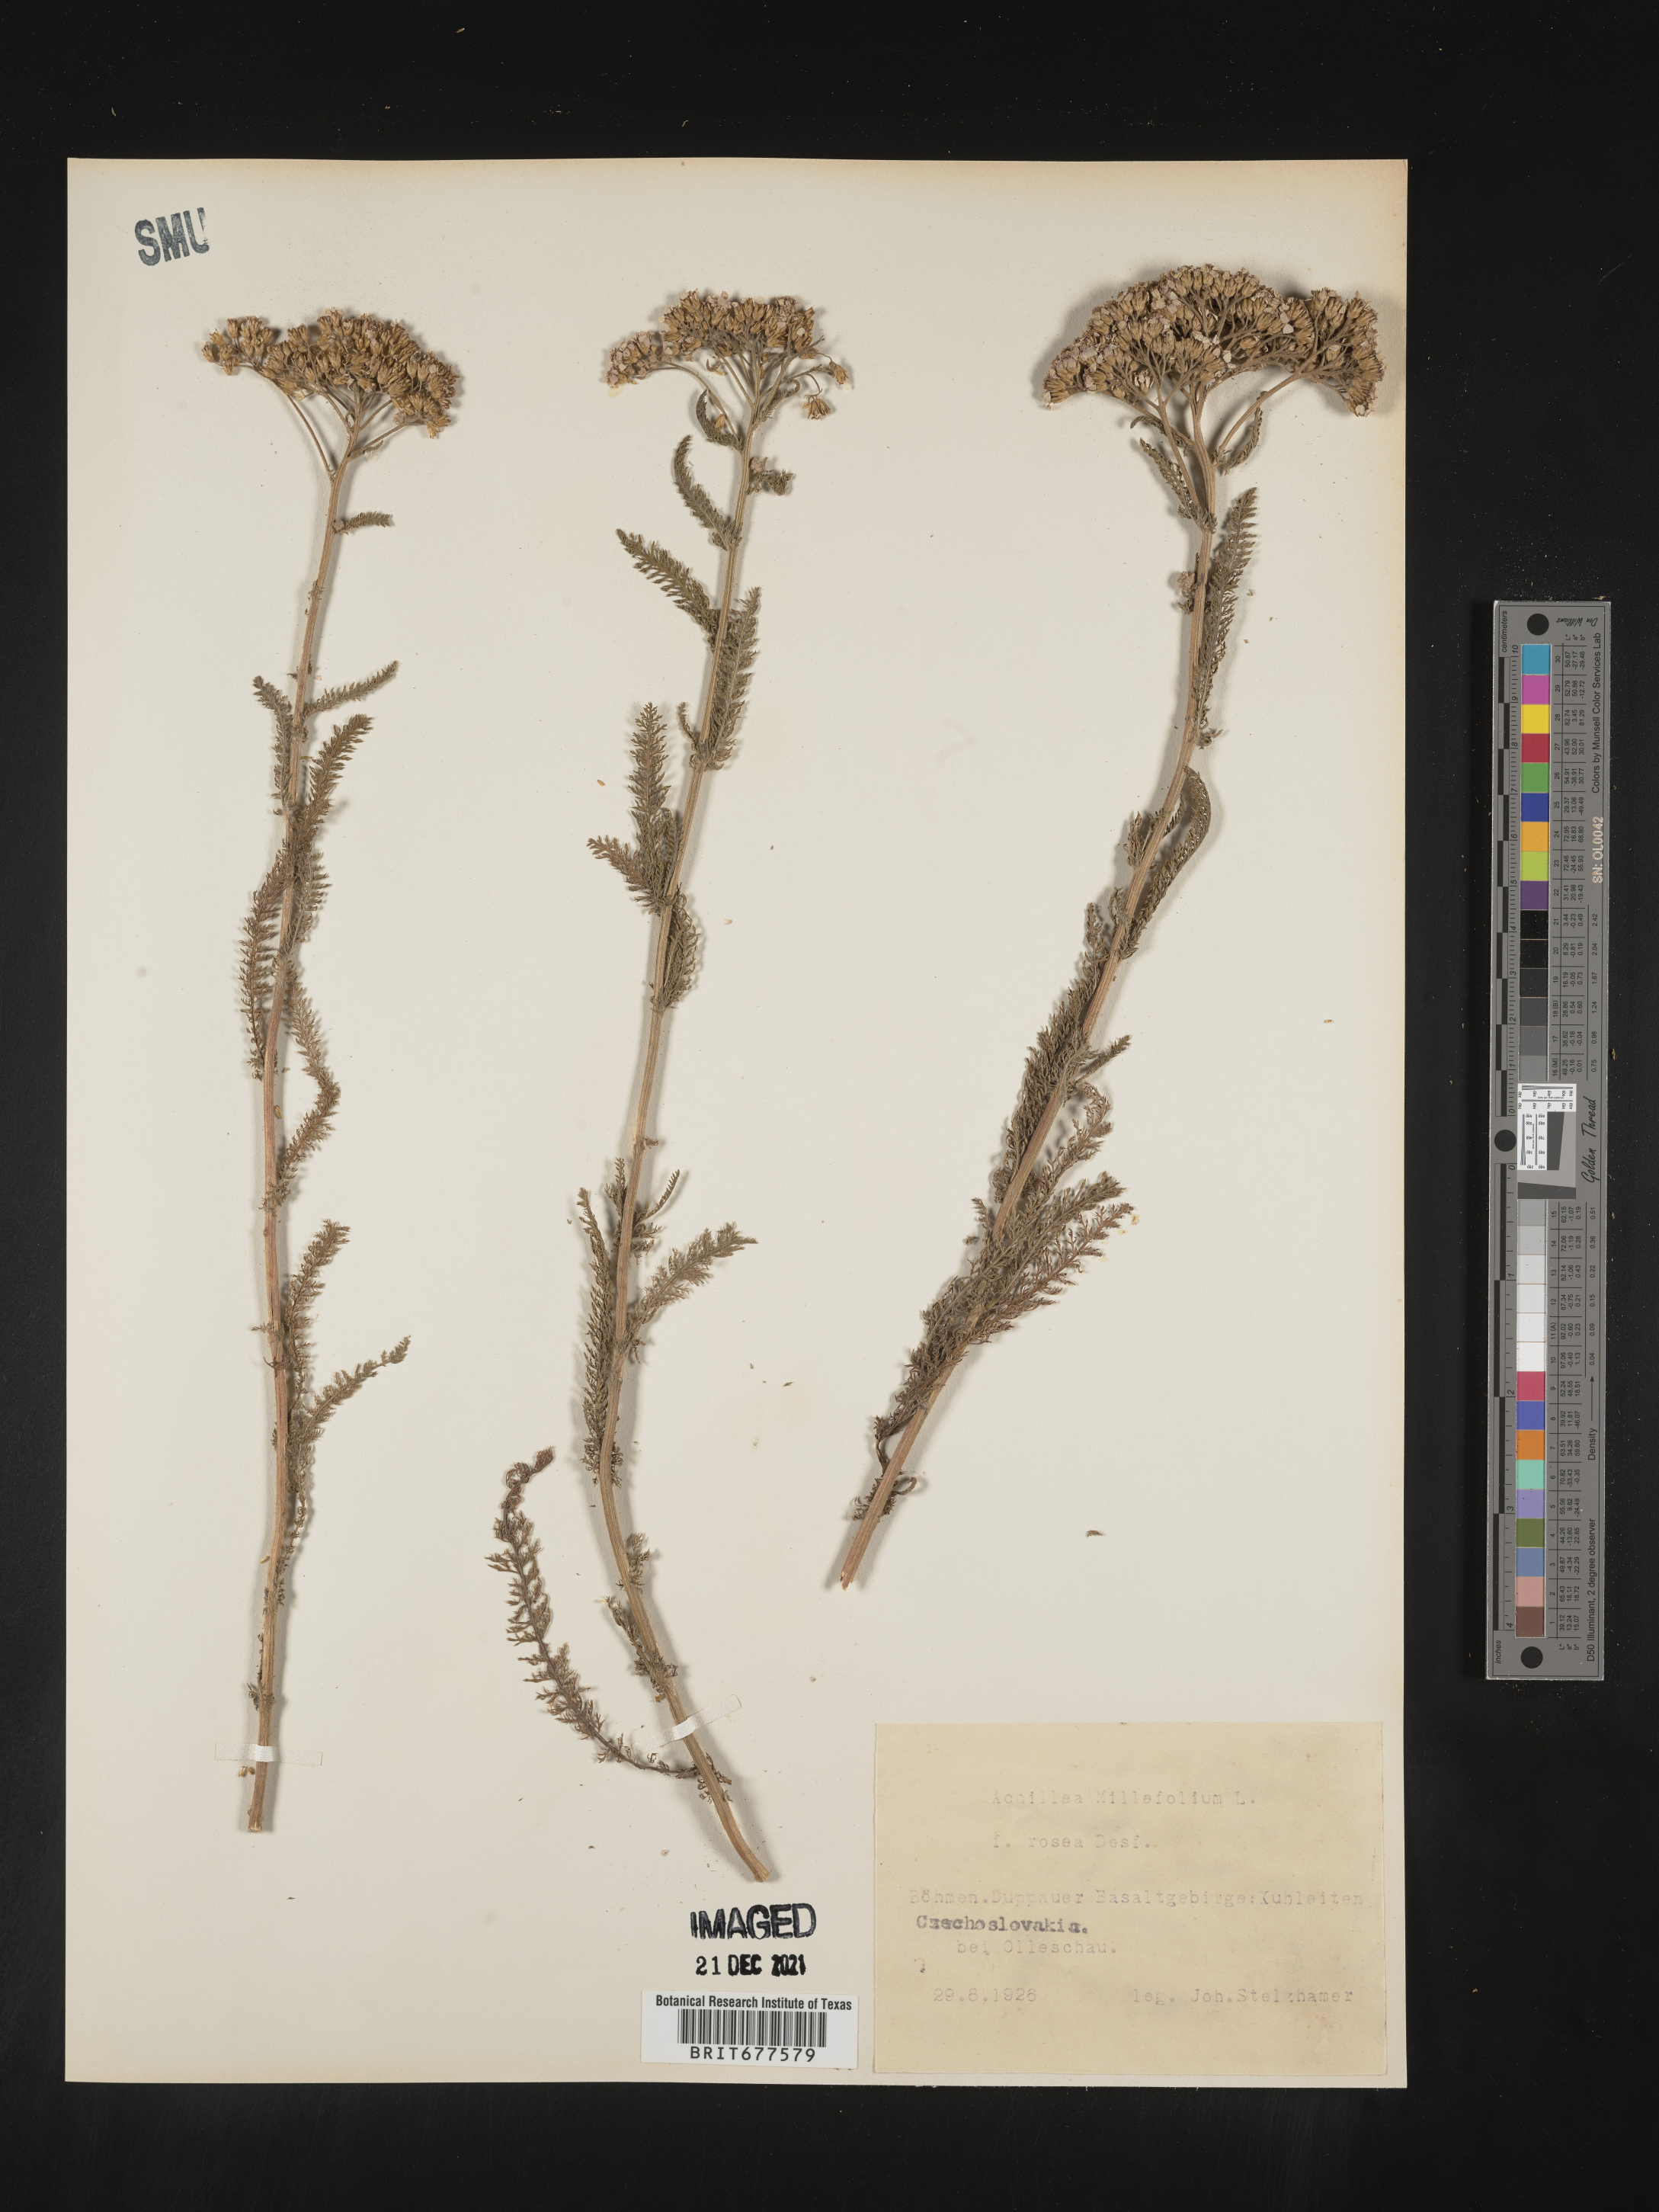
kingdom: Plantae
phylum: Tracheophyta
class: Magnoliopsida
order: Asterales
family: Asteraceae
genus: Achillea
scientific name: Achillea millefolium
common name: Yarrow
